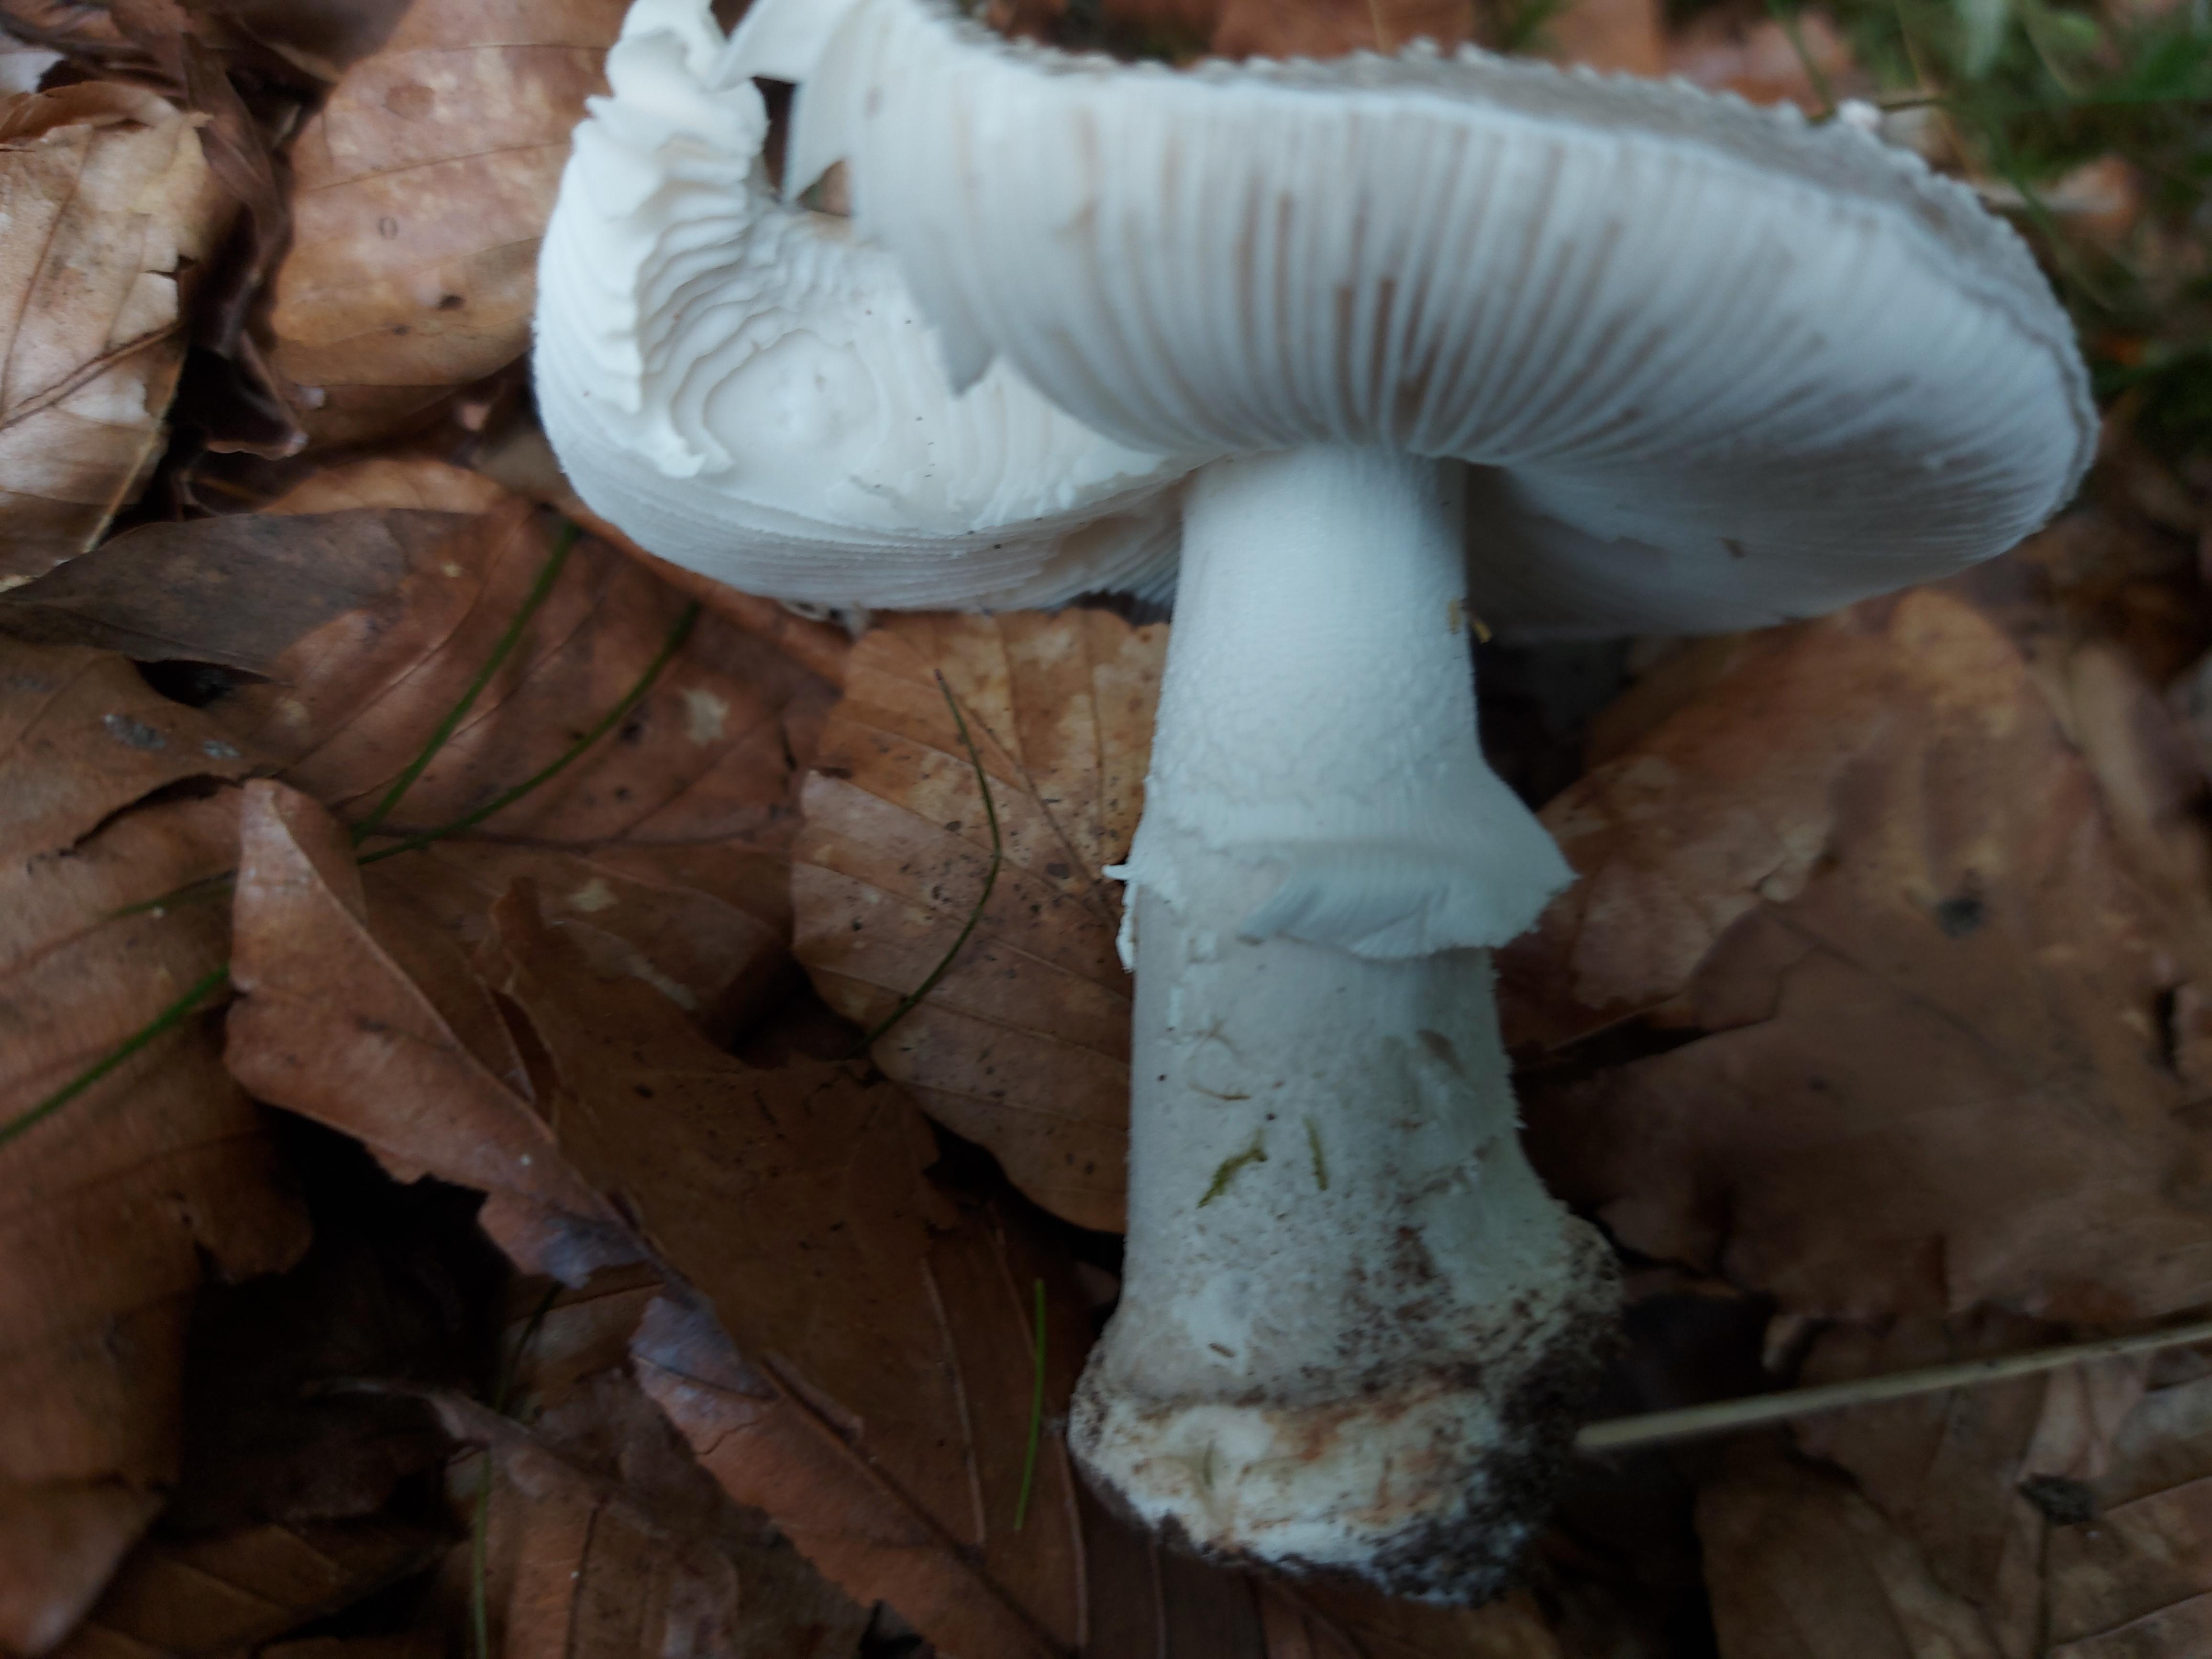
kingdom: Fungi
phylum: Basidiomycota
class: Agaricomycetes
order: Agaricales
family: Amanitaceae
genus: Amanita
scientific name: Amanita
